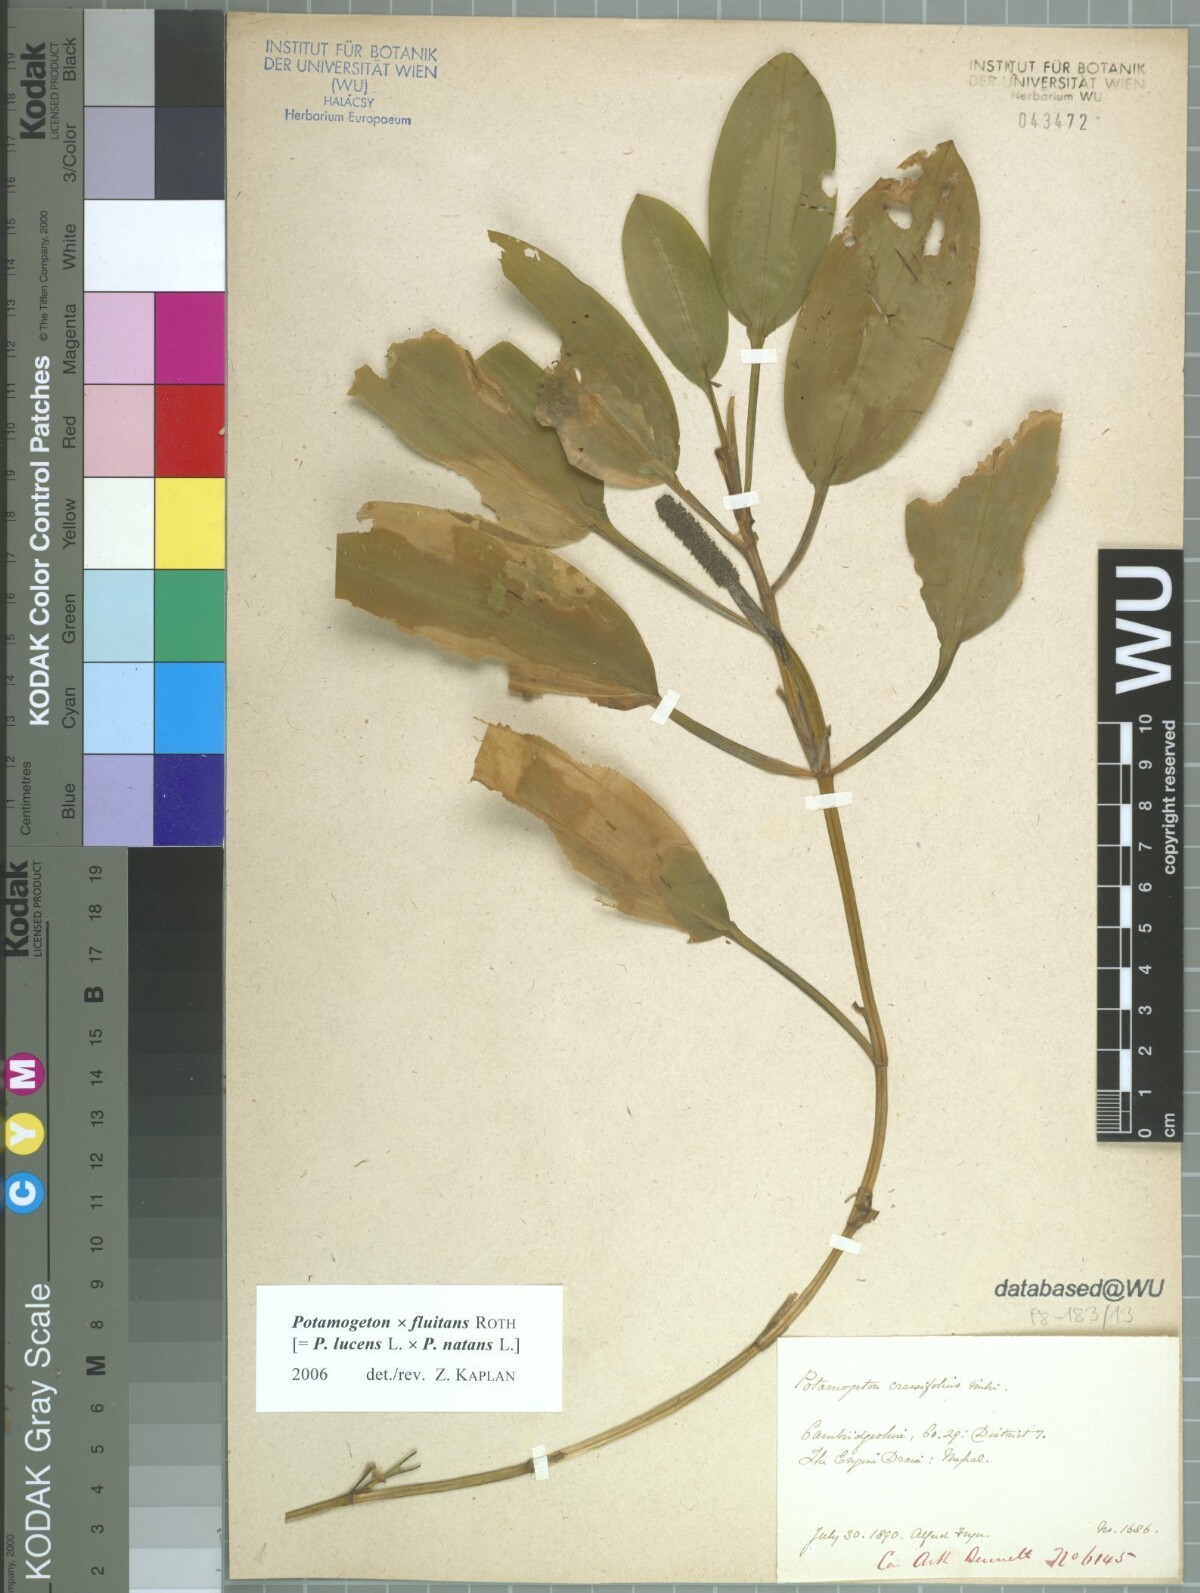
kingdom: Plantae
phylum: Tracheophyta
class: Liliopsida
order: Alismatales
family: Potamogetonaceae
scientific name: Potamogetonaceae
